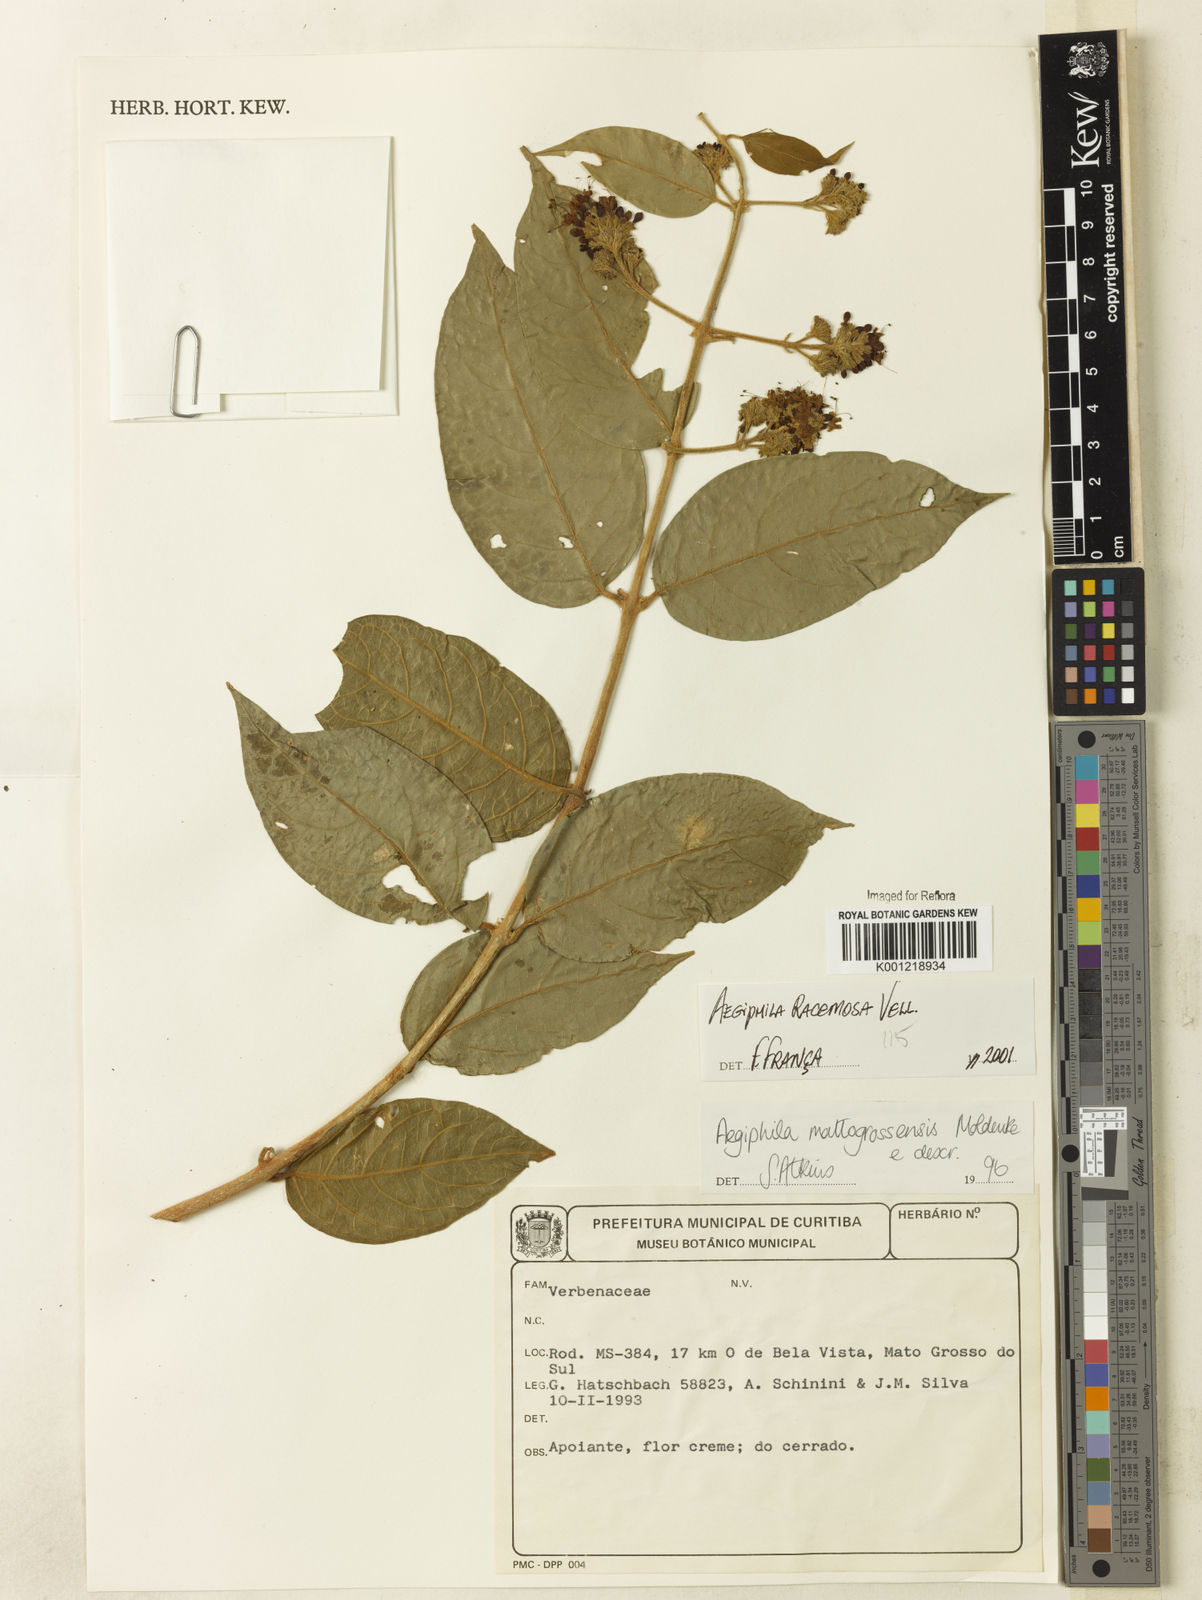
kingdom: Plantae
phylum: Tracheophyta
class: Magnoliopsida
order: Lamiales
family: Lamiaceae
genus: Aegiphila
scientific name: Aegiphila racemosa
